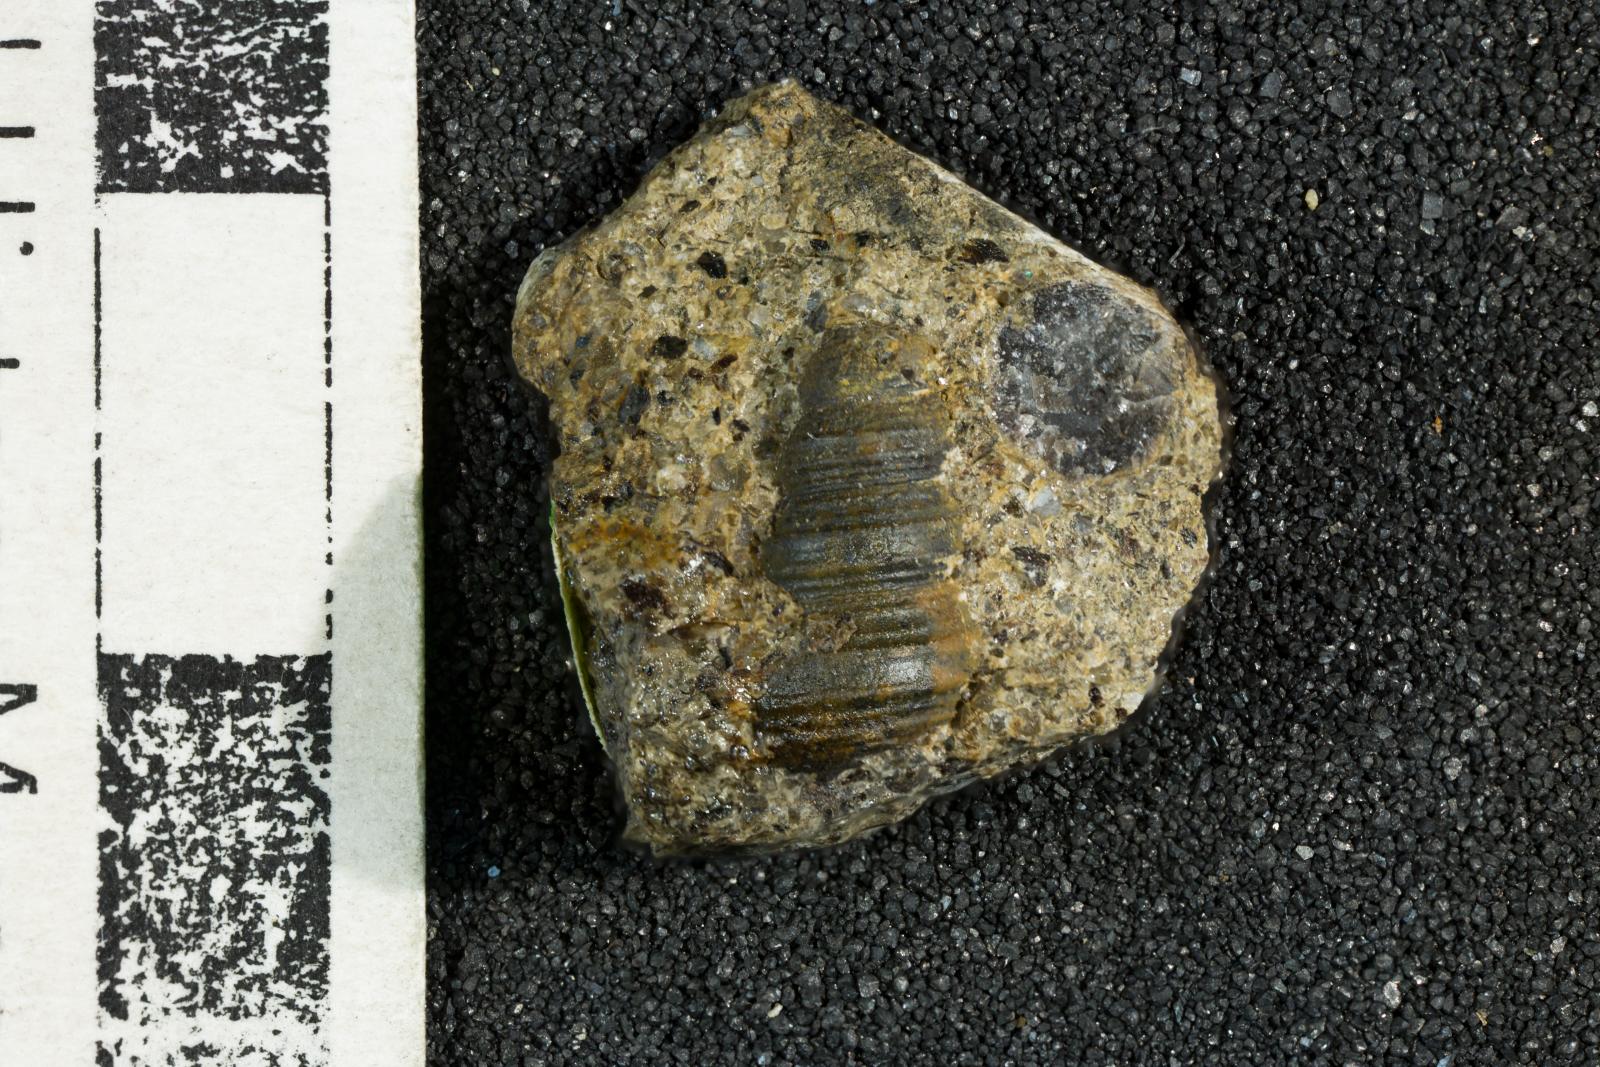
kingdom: Animalia
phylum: Mollusca
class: Gastropoda
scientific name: Gastropoda
